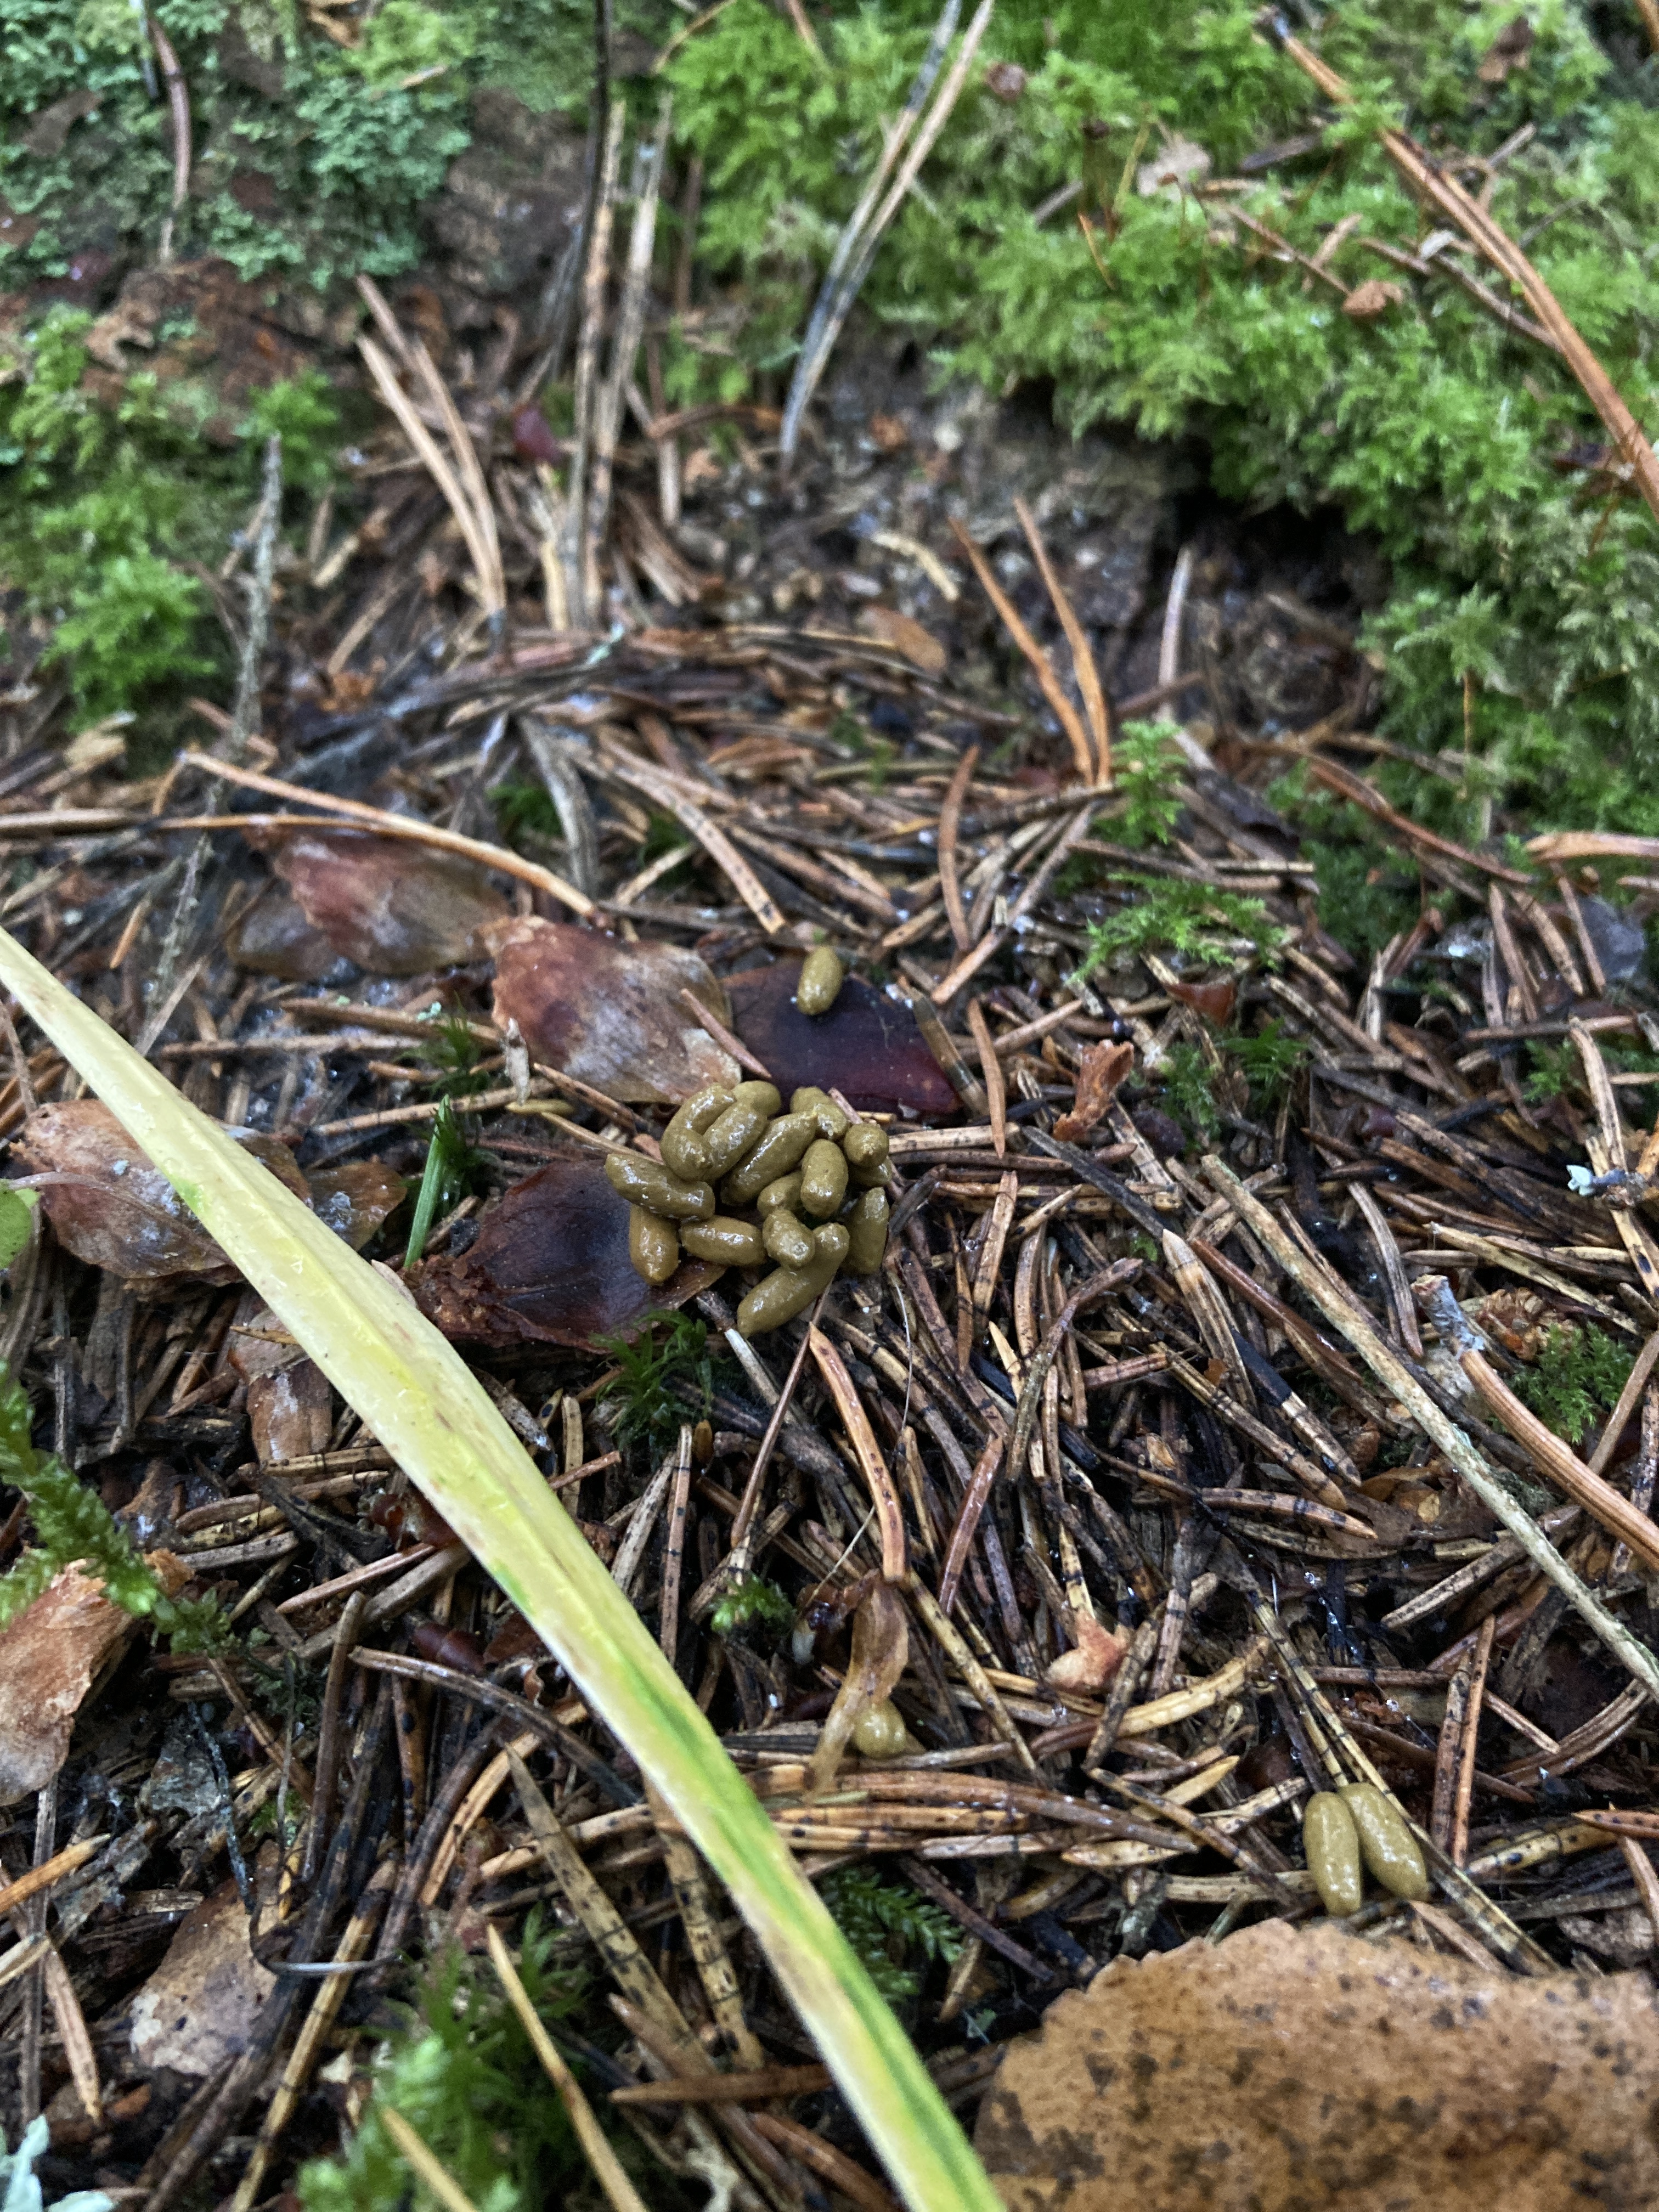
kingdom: Animalia
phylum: Chordata
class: Mammalia
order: Rodentia
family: Sciuridae
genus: Pteromys
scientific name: Pteromys volans
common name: Siberian flying squirrel
